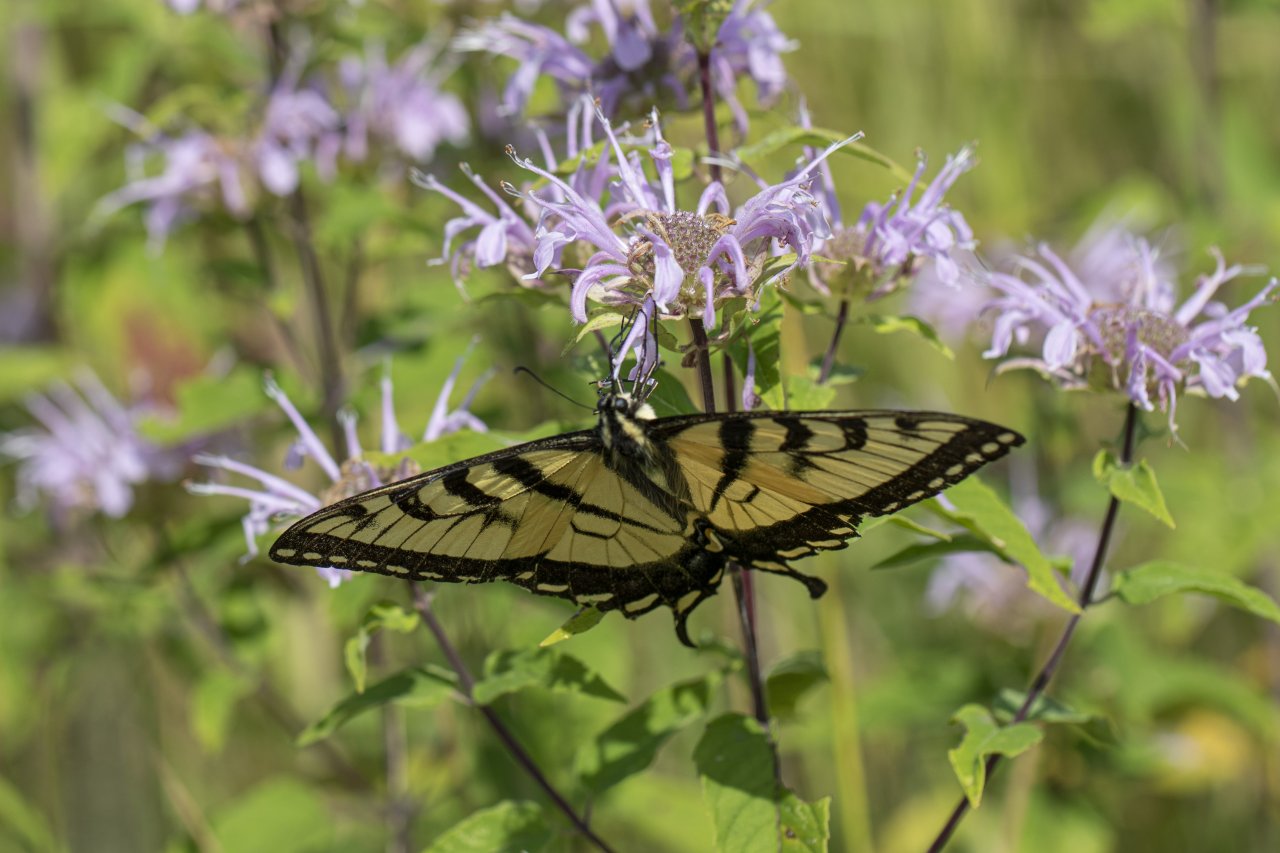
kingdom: Animalia
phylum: Arthropoda
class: Insecta
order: Lepidoptera
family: Papilionidae
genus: Pterourus
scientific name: Pterourus
